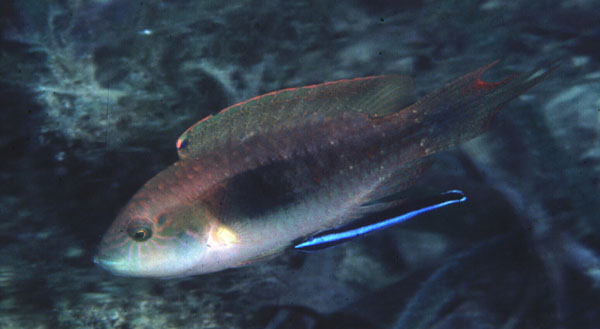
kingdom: Animalia
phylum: Chordata
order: Perciformes
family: Labridae
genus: Oxycheilinus
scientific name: Oxycheilinus bimaculatus
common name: Comettailed wrasse
